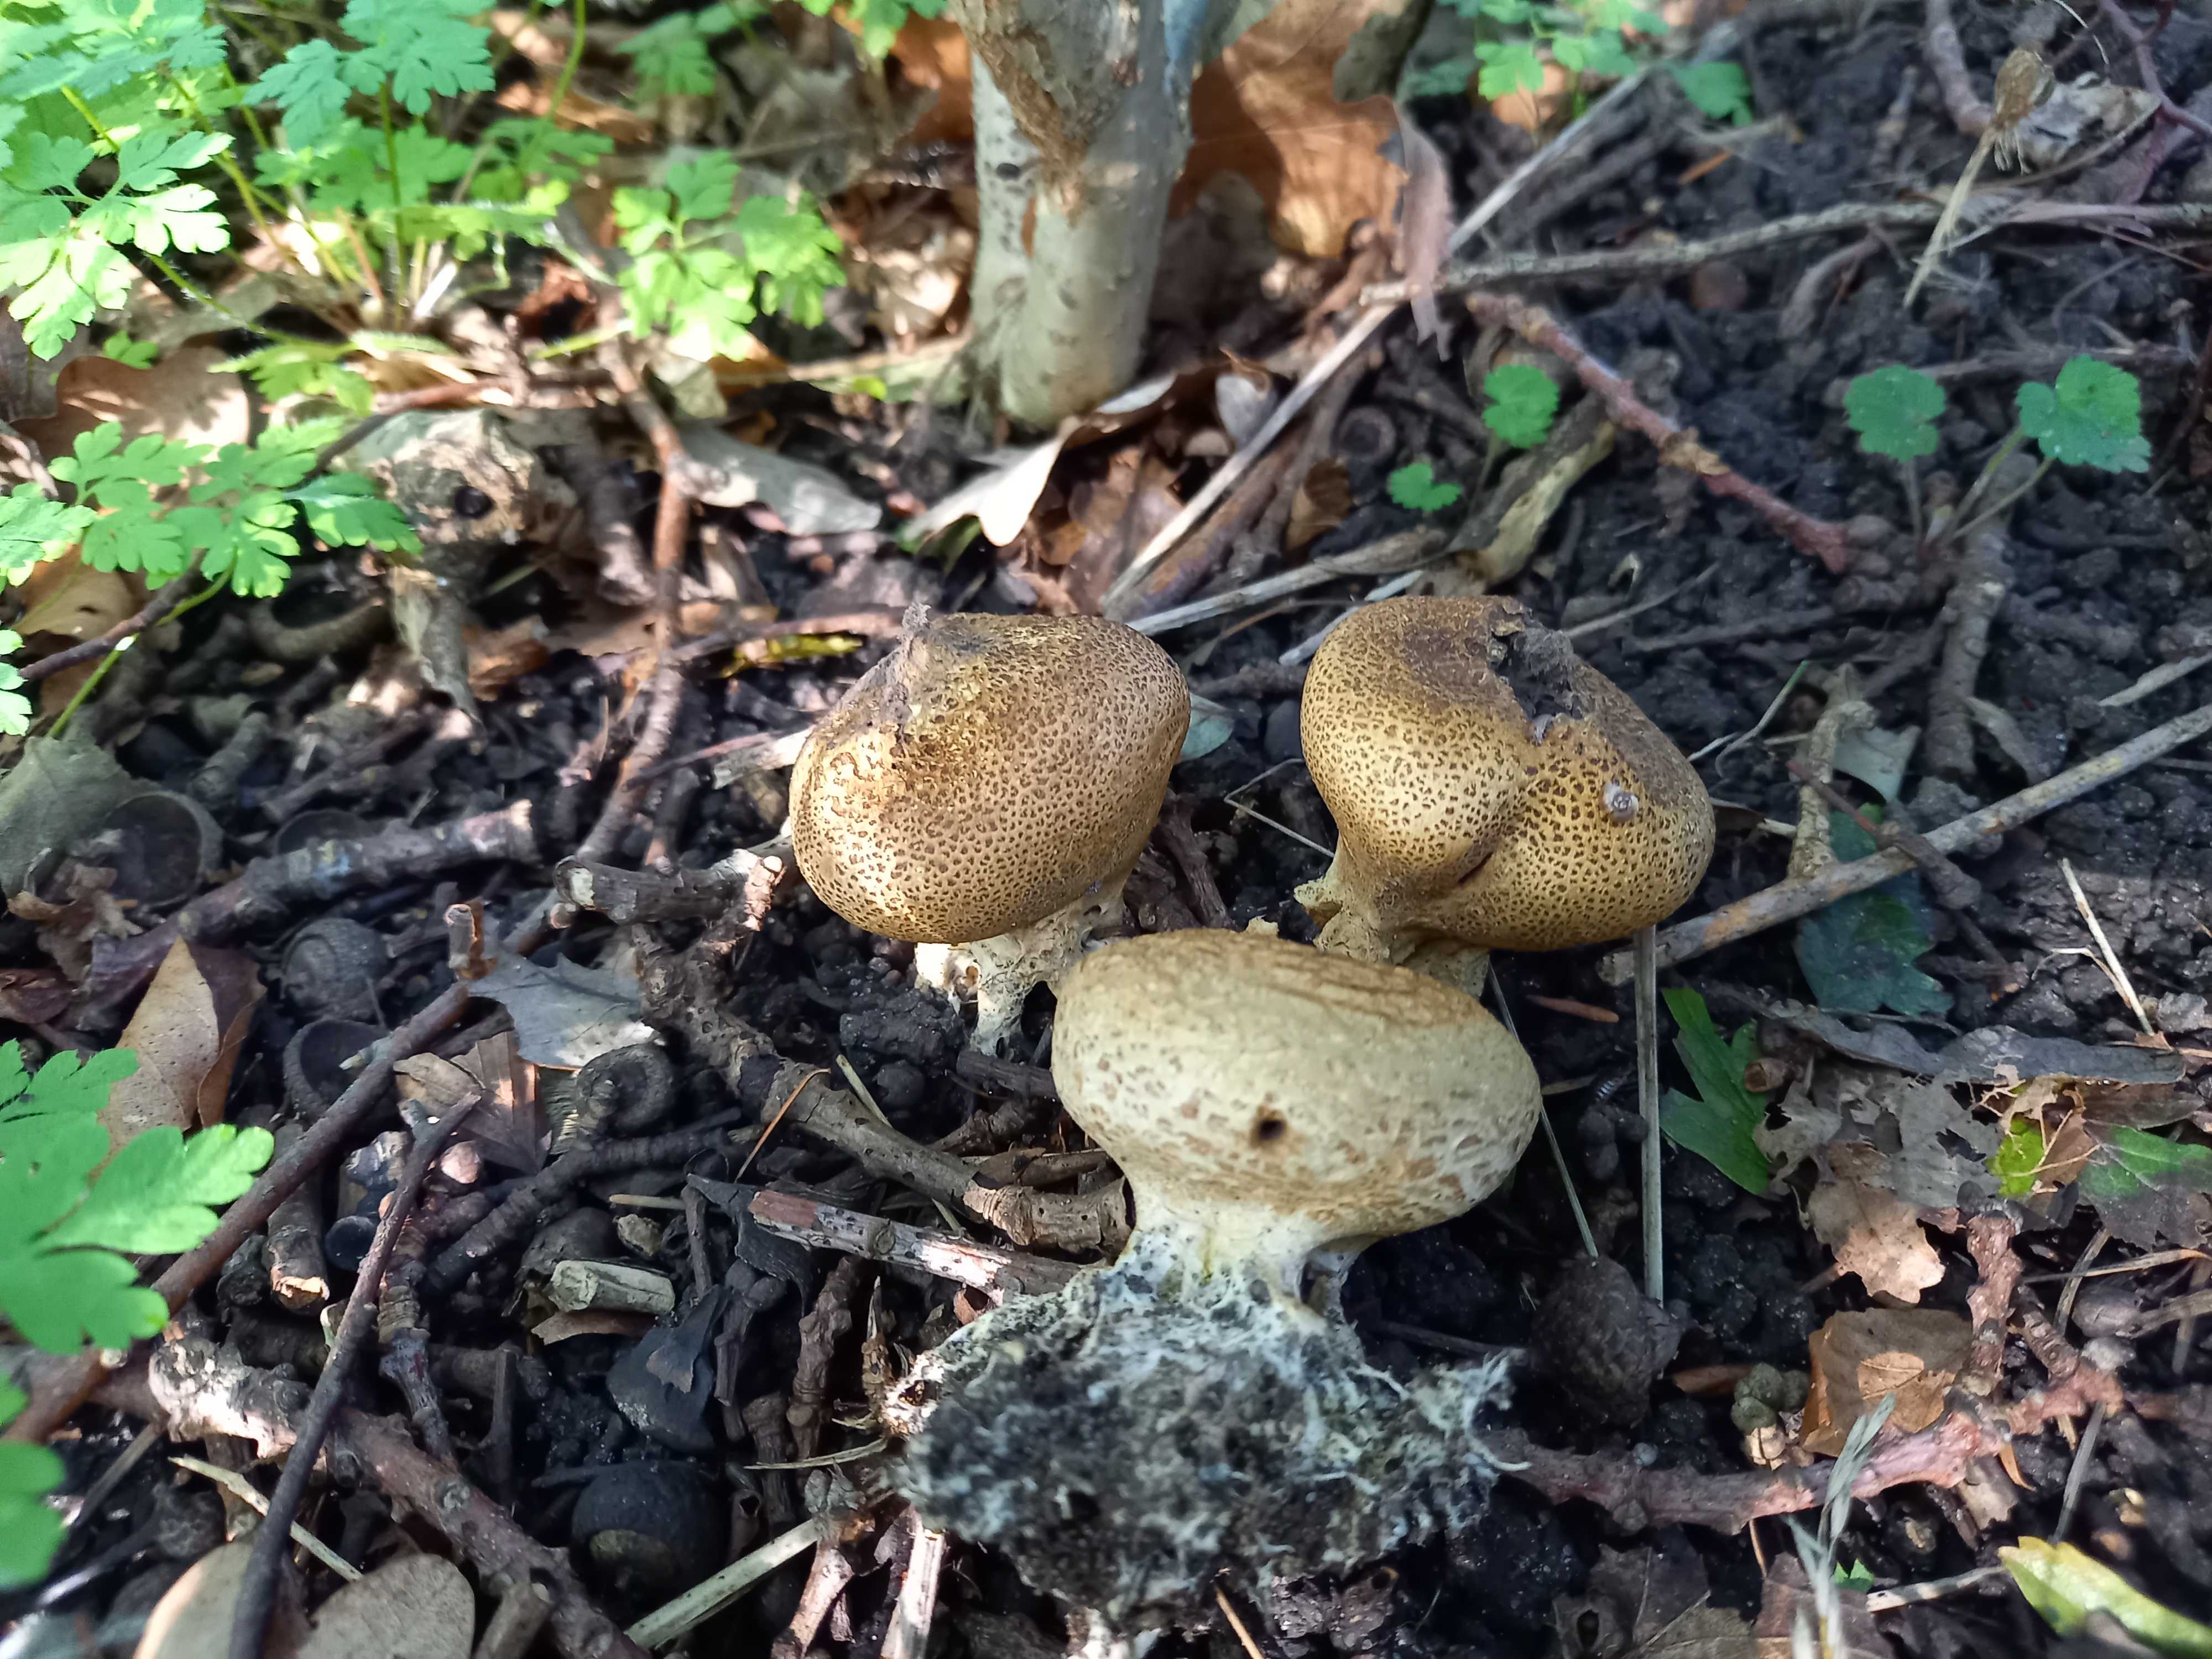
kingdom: Fungi
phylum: Basidiomycota
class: Agaricomycetes
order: Boletales
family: Sclerodermataceae
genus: Scleroderma
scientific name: Scleroderma verrucosum
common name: stilket bruskbold
